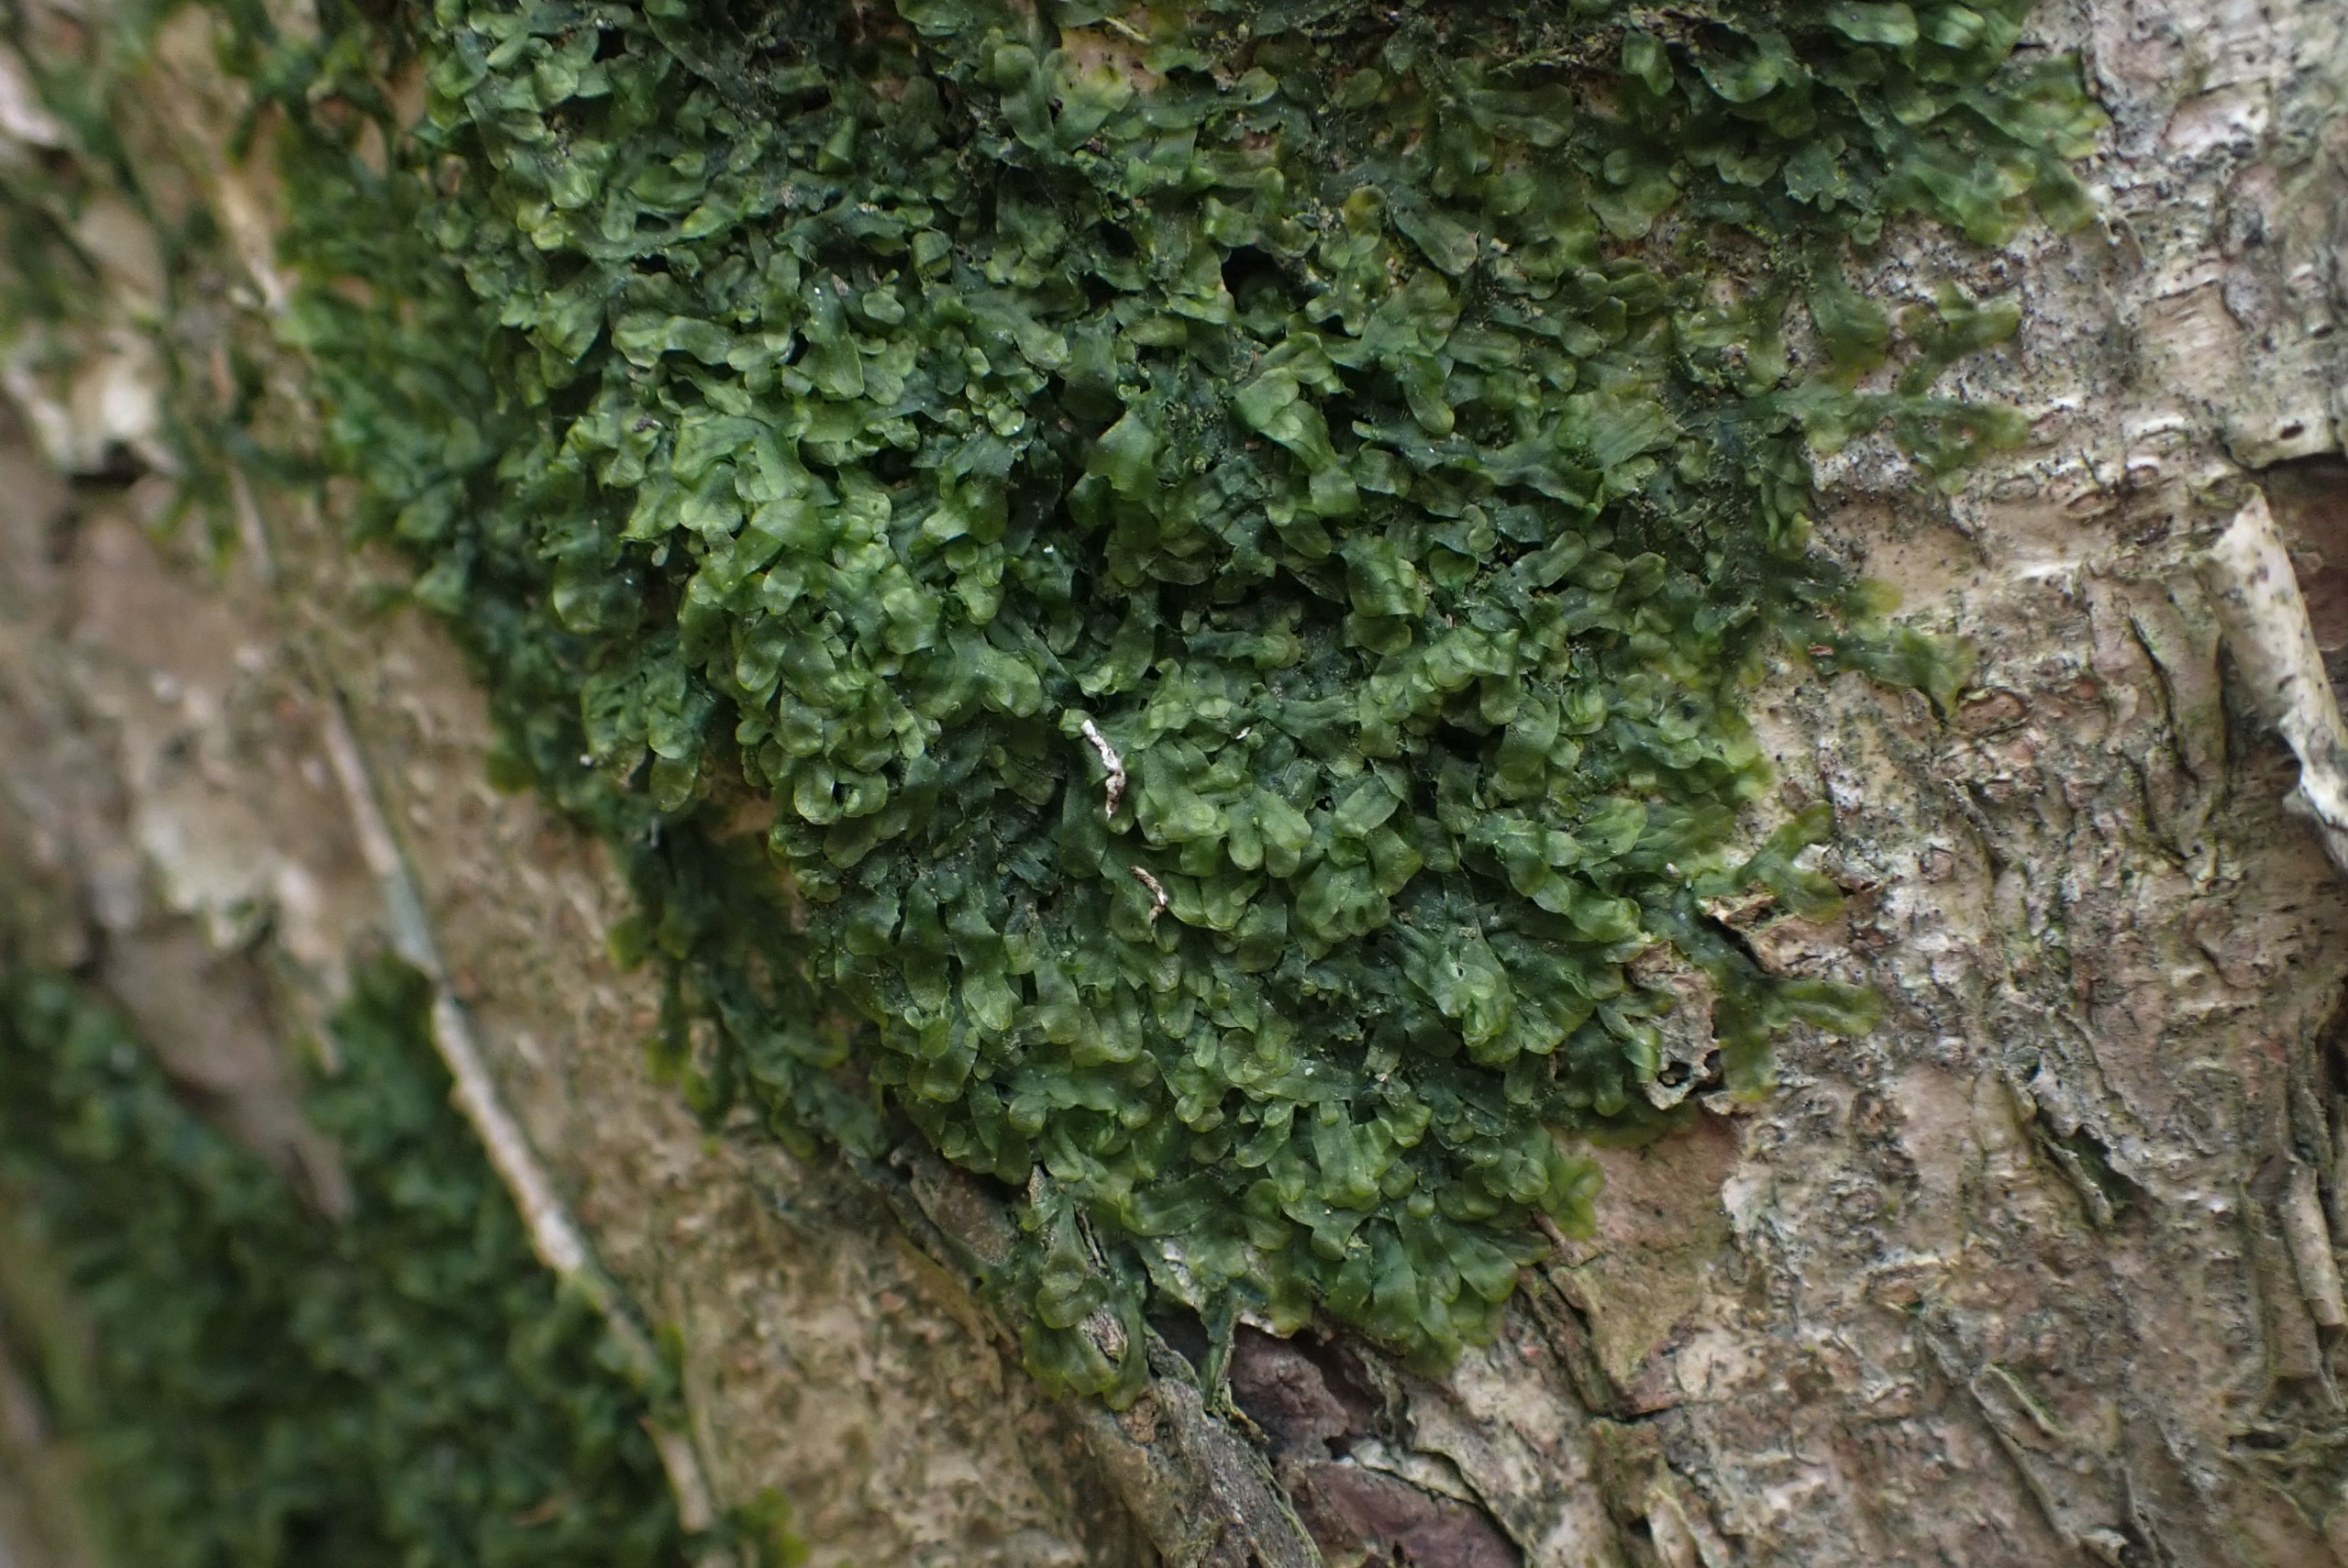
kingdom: Plantae
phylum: Marchantiophyta
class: Jungermanniopsida
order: Metzgeriales
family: Metzgeriaceae
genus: Metzgeria
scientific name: Metzgeria furcata
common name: Almindelig gaffelløv
